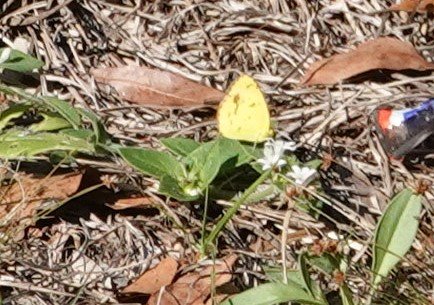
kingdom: Animalia
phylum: Arthropoda
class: Insecta
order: Lepidoptera
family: Pieridae
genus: Pyrisitia
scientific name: Pyrisitia lisa
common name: Little Yellow
